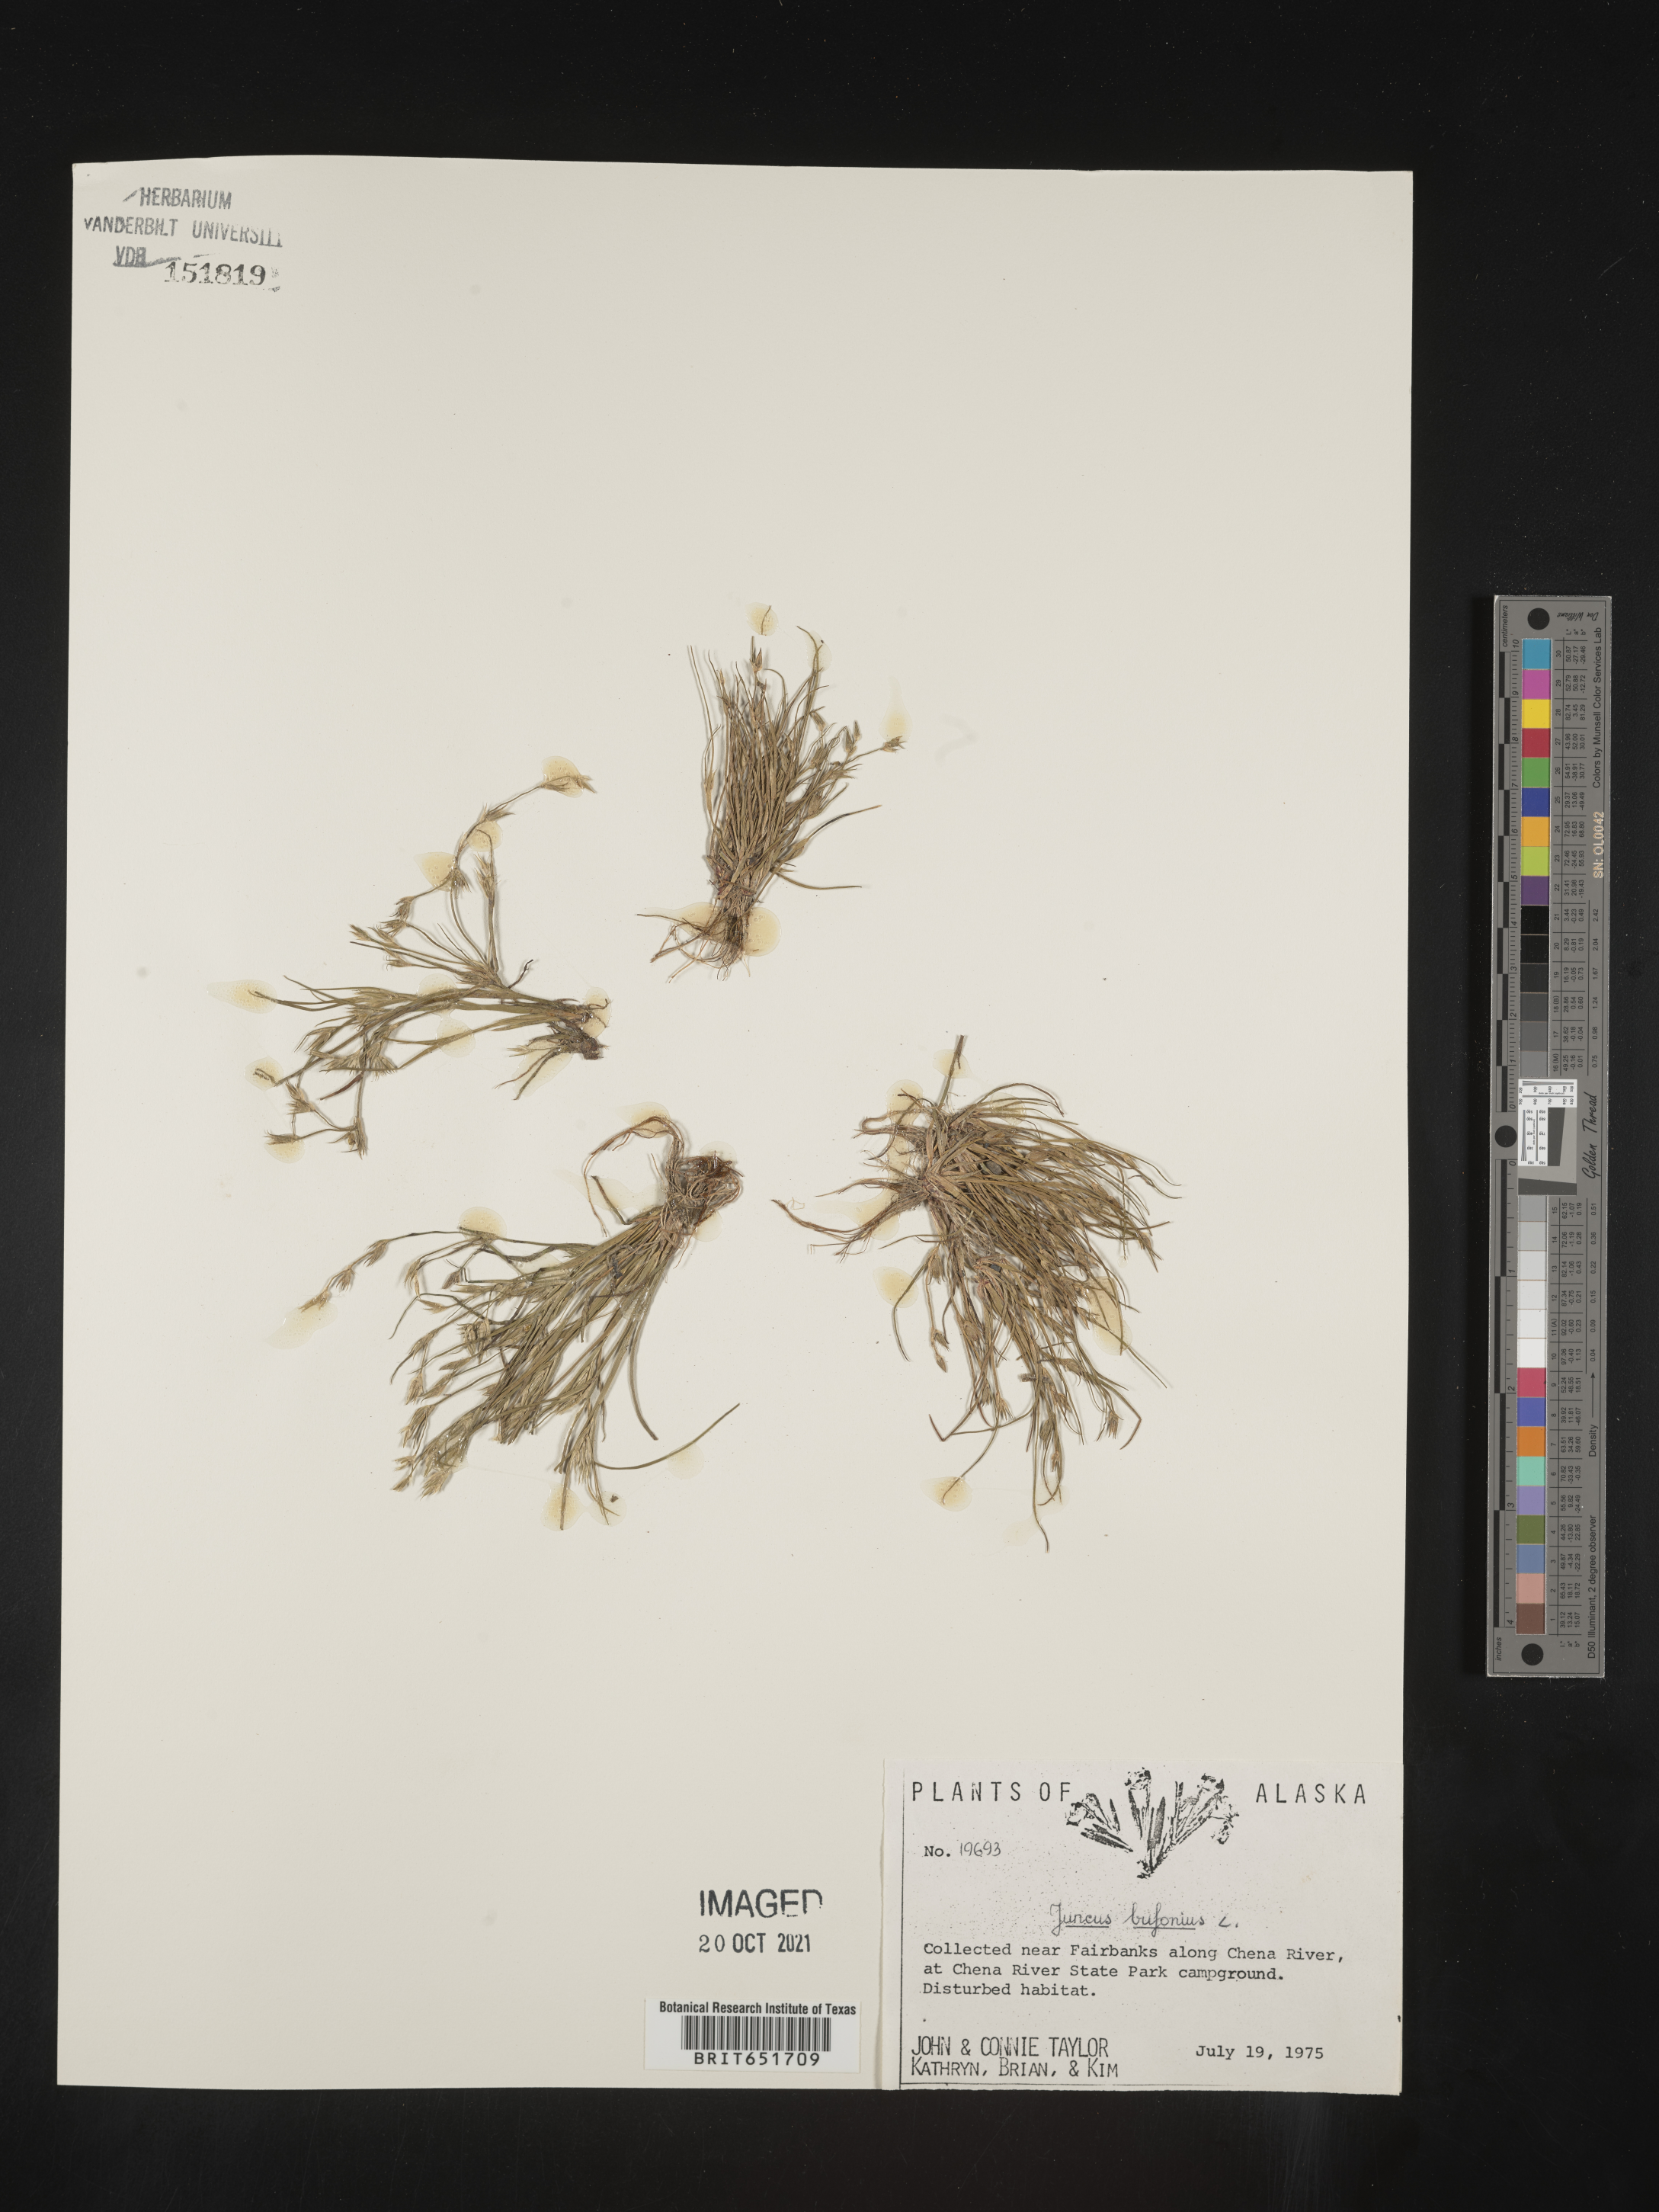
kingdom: Plantae
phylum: Tracheophyta
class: Liliopsida
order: Poales
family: Juncaceae
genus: Juncus
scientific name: Juncus bufonius
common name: Toad rush
